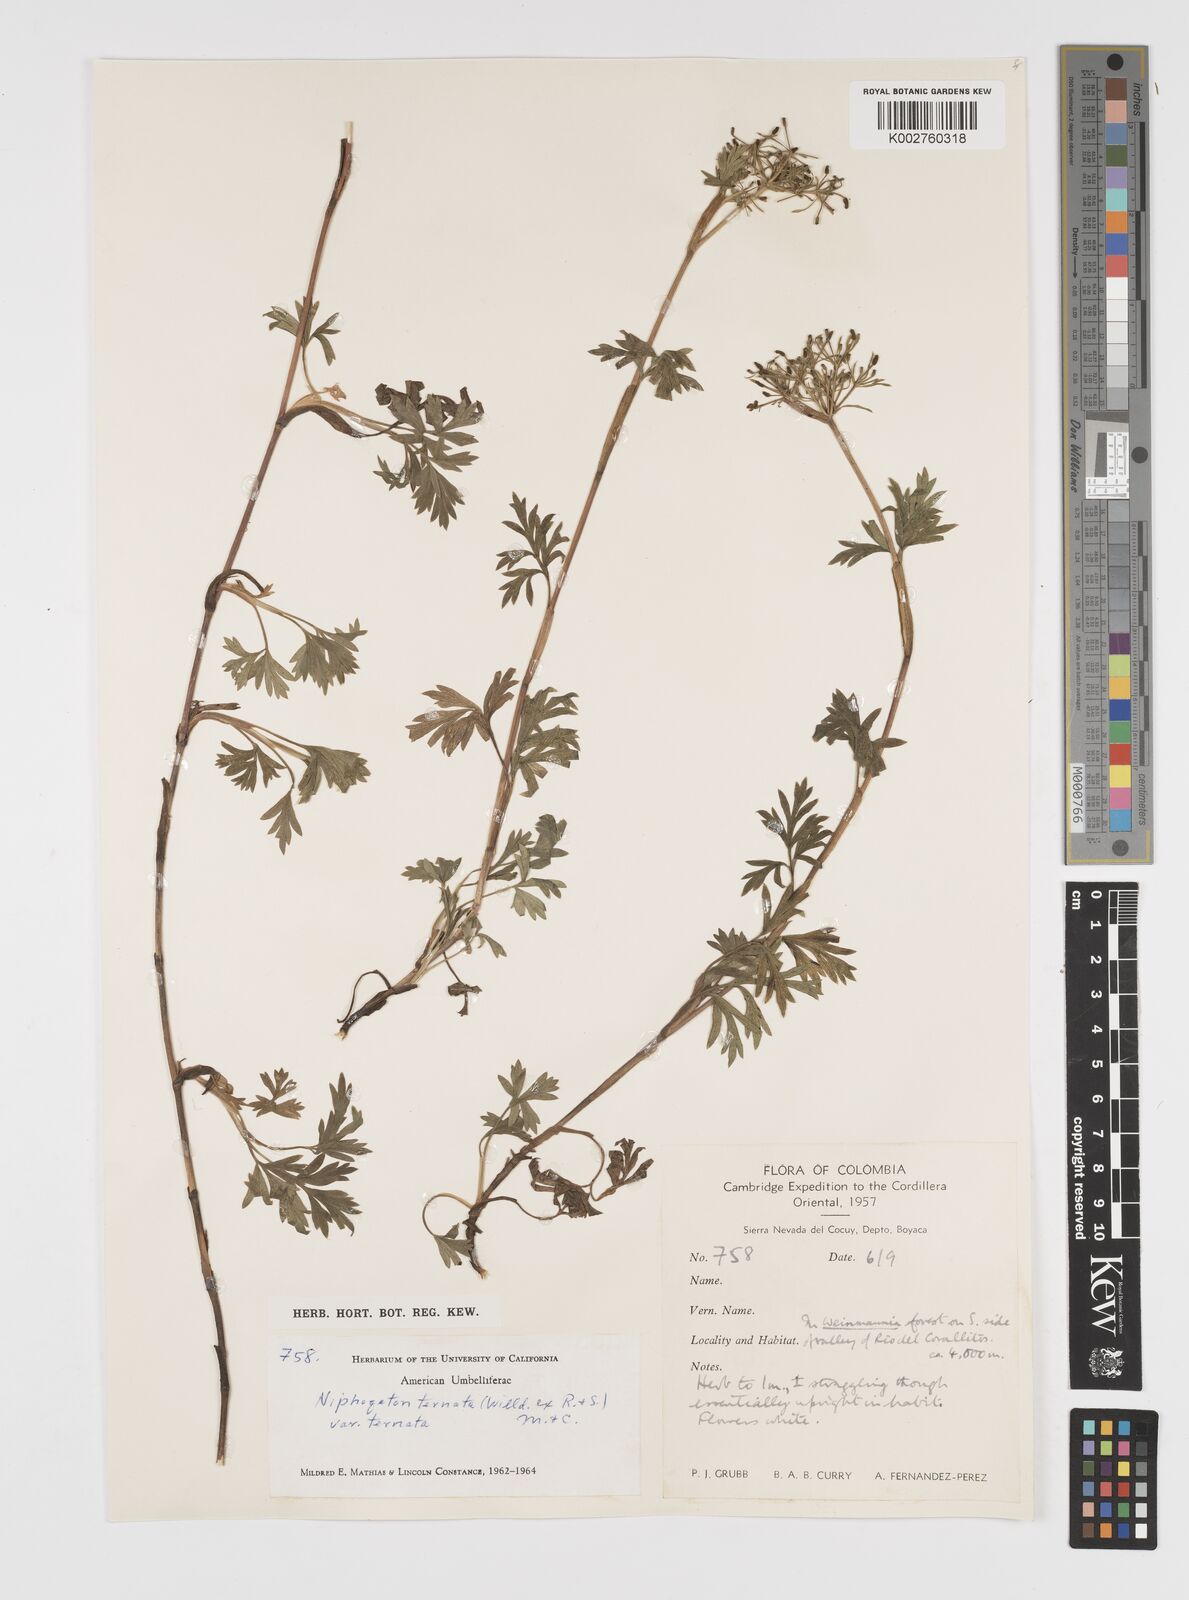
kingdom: Plantae
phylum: Tracheophyta
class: Magnoliopsida
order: Apiales
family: Apiaceae
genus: Niphogeton
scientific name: Niphogeton ternata
